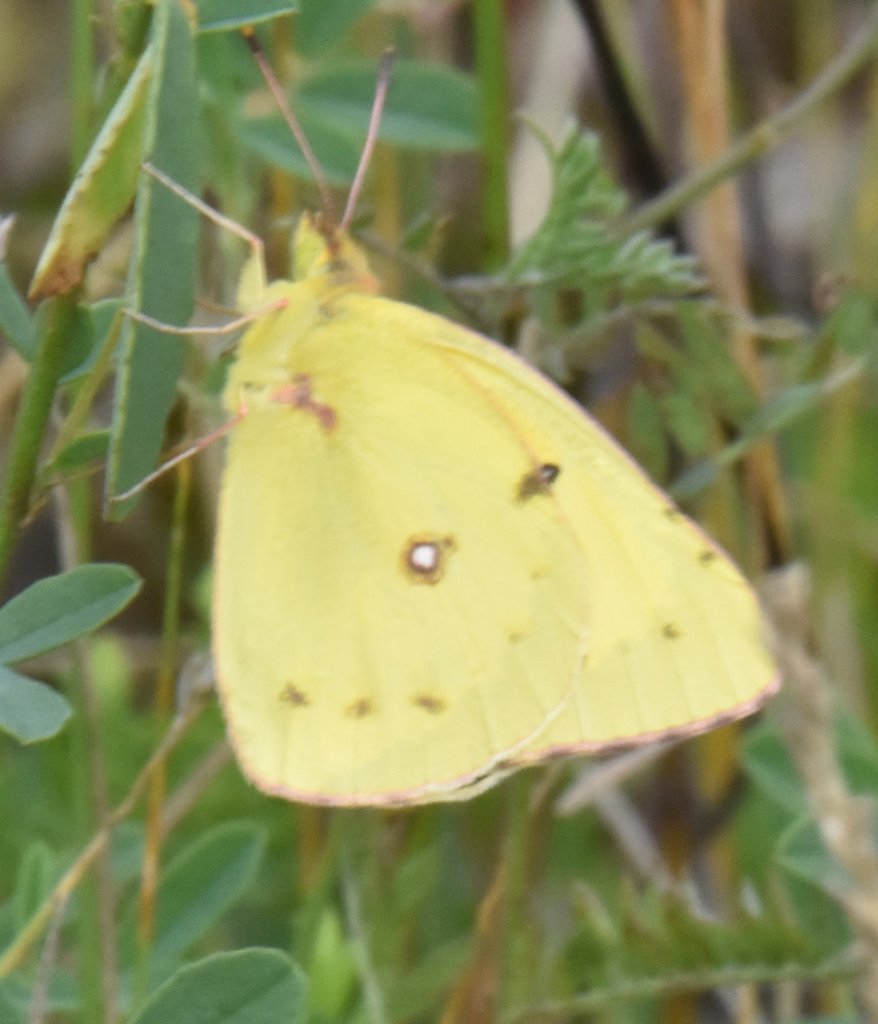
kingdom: Animalia
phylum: Arthropoda
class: Insecta
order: Lepidoptera
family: Pieridae
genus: Colias
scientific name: Colias philodice
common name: Clouded Sulphur
